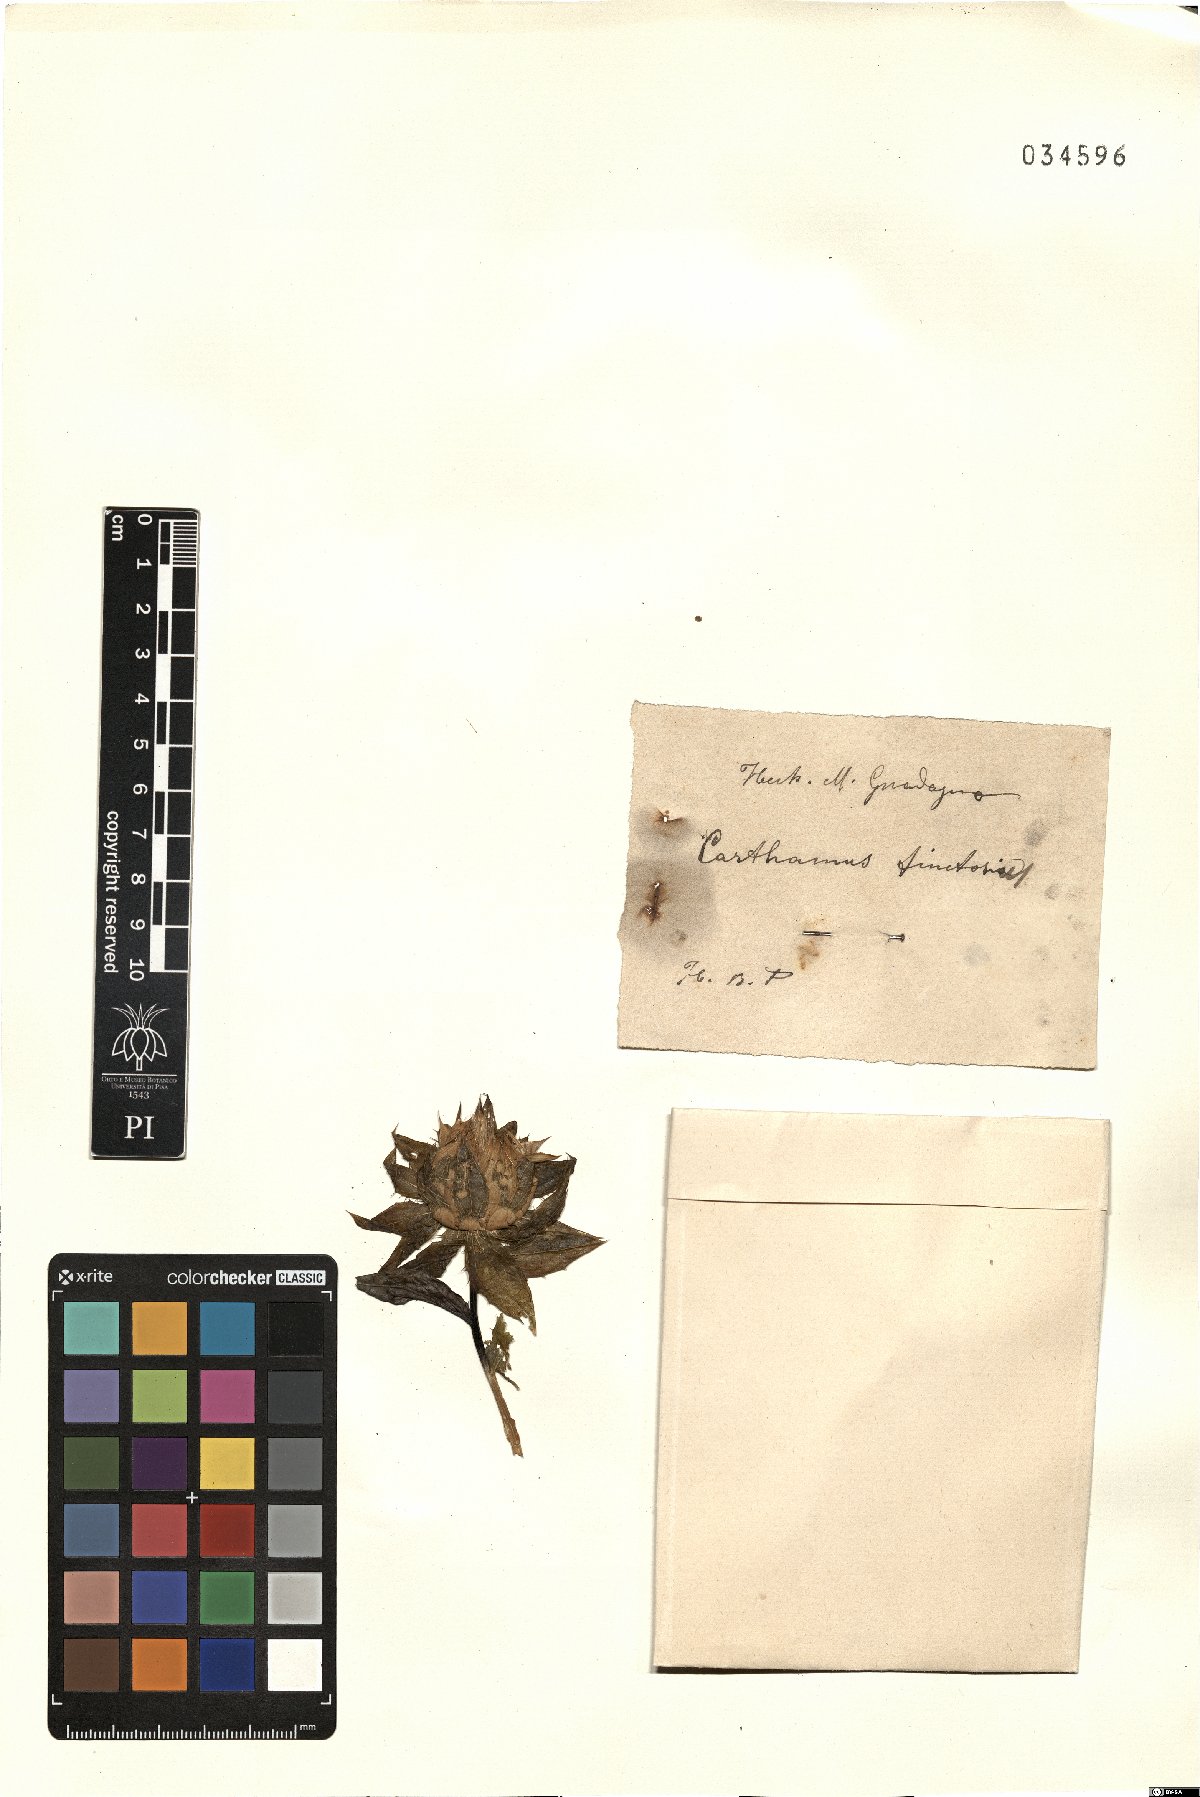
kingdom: Plantae
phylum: Tracheophyta
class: Magnoliopsida
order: Asterales
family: Asteraceae
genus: Carthamus
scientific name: Carthamus tinctorius
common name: Safflower
